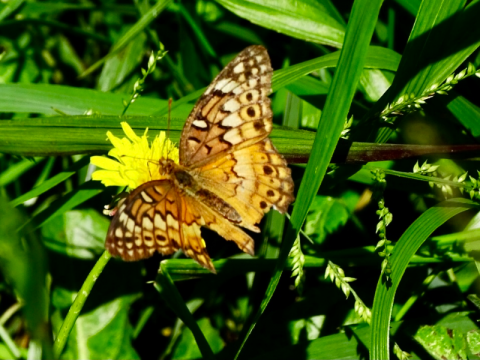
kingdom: Animalia
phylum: Arthropoda
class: Insecta
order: Lepidoptera
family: Nymphalidae
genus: Euptoieta
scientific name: Euptoieta claudia
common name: Variegated Fritillary
